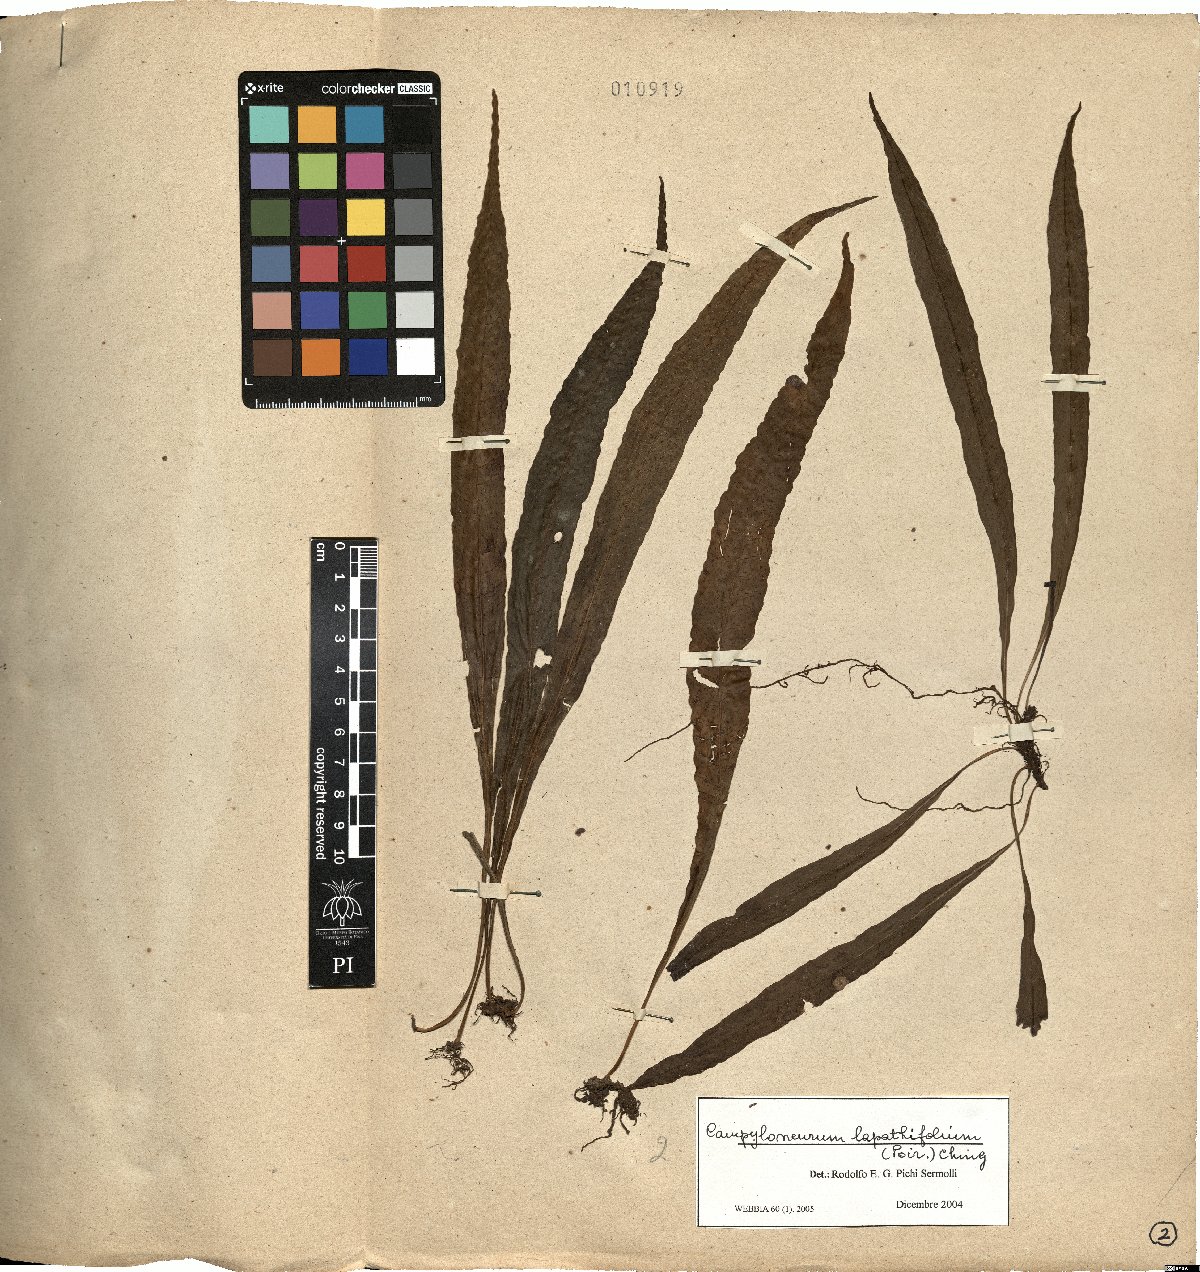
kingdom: Plantae
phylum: Tracheophyta
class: Polypodiopsida
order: Polypodiales
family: Polypodiaceae
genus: Campyloneurum
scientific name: Campyloneurum repens
